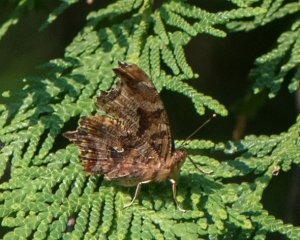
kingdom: Animalia
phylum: Arthropoda
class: Insecta
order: Lepidoptera
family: Nymphalidae
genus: Polygonia
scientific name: Polygonia comma
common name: Eastern Comma
